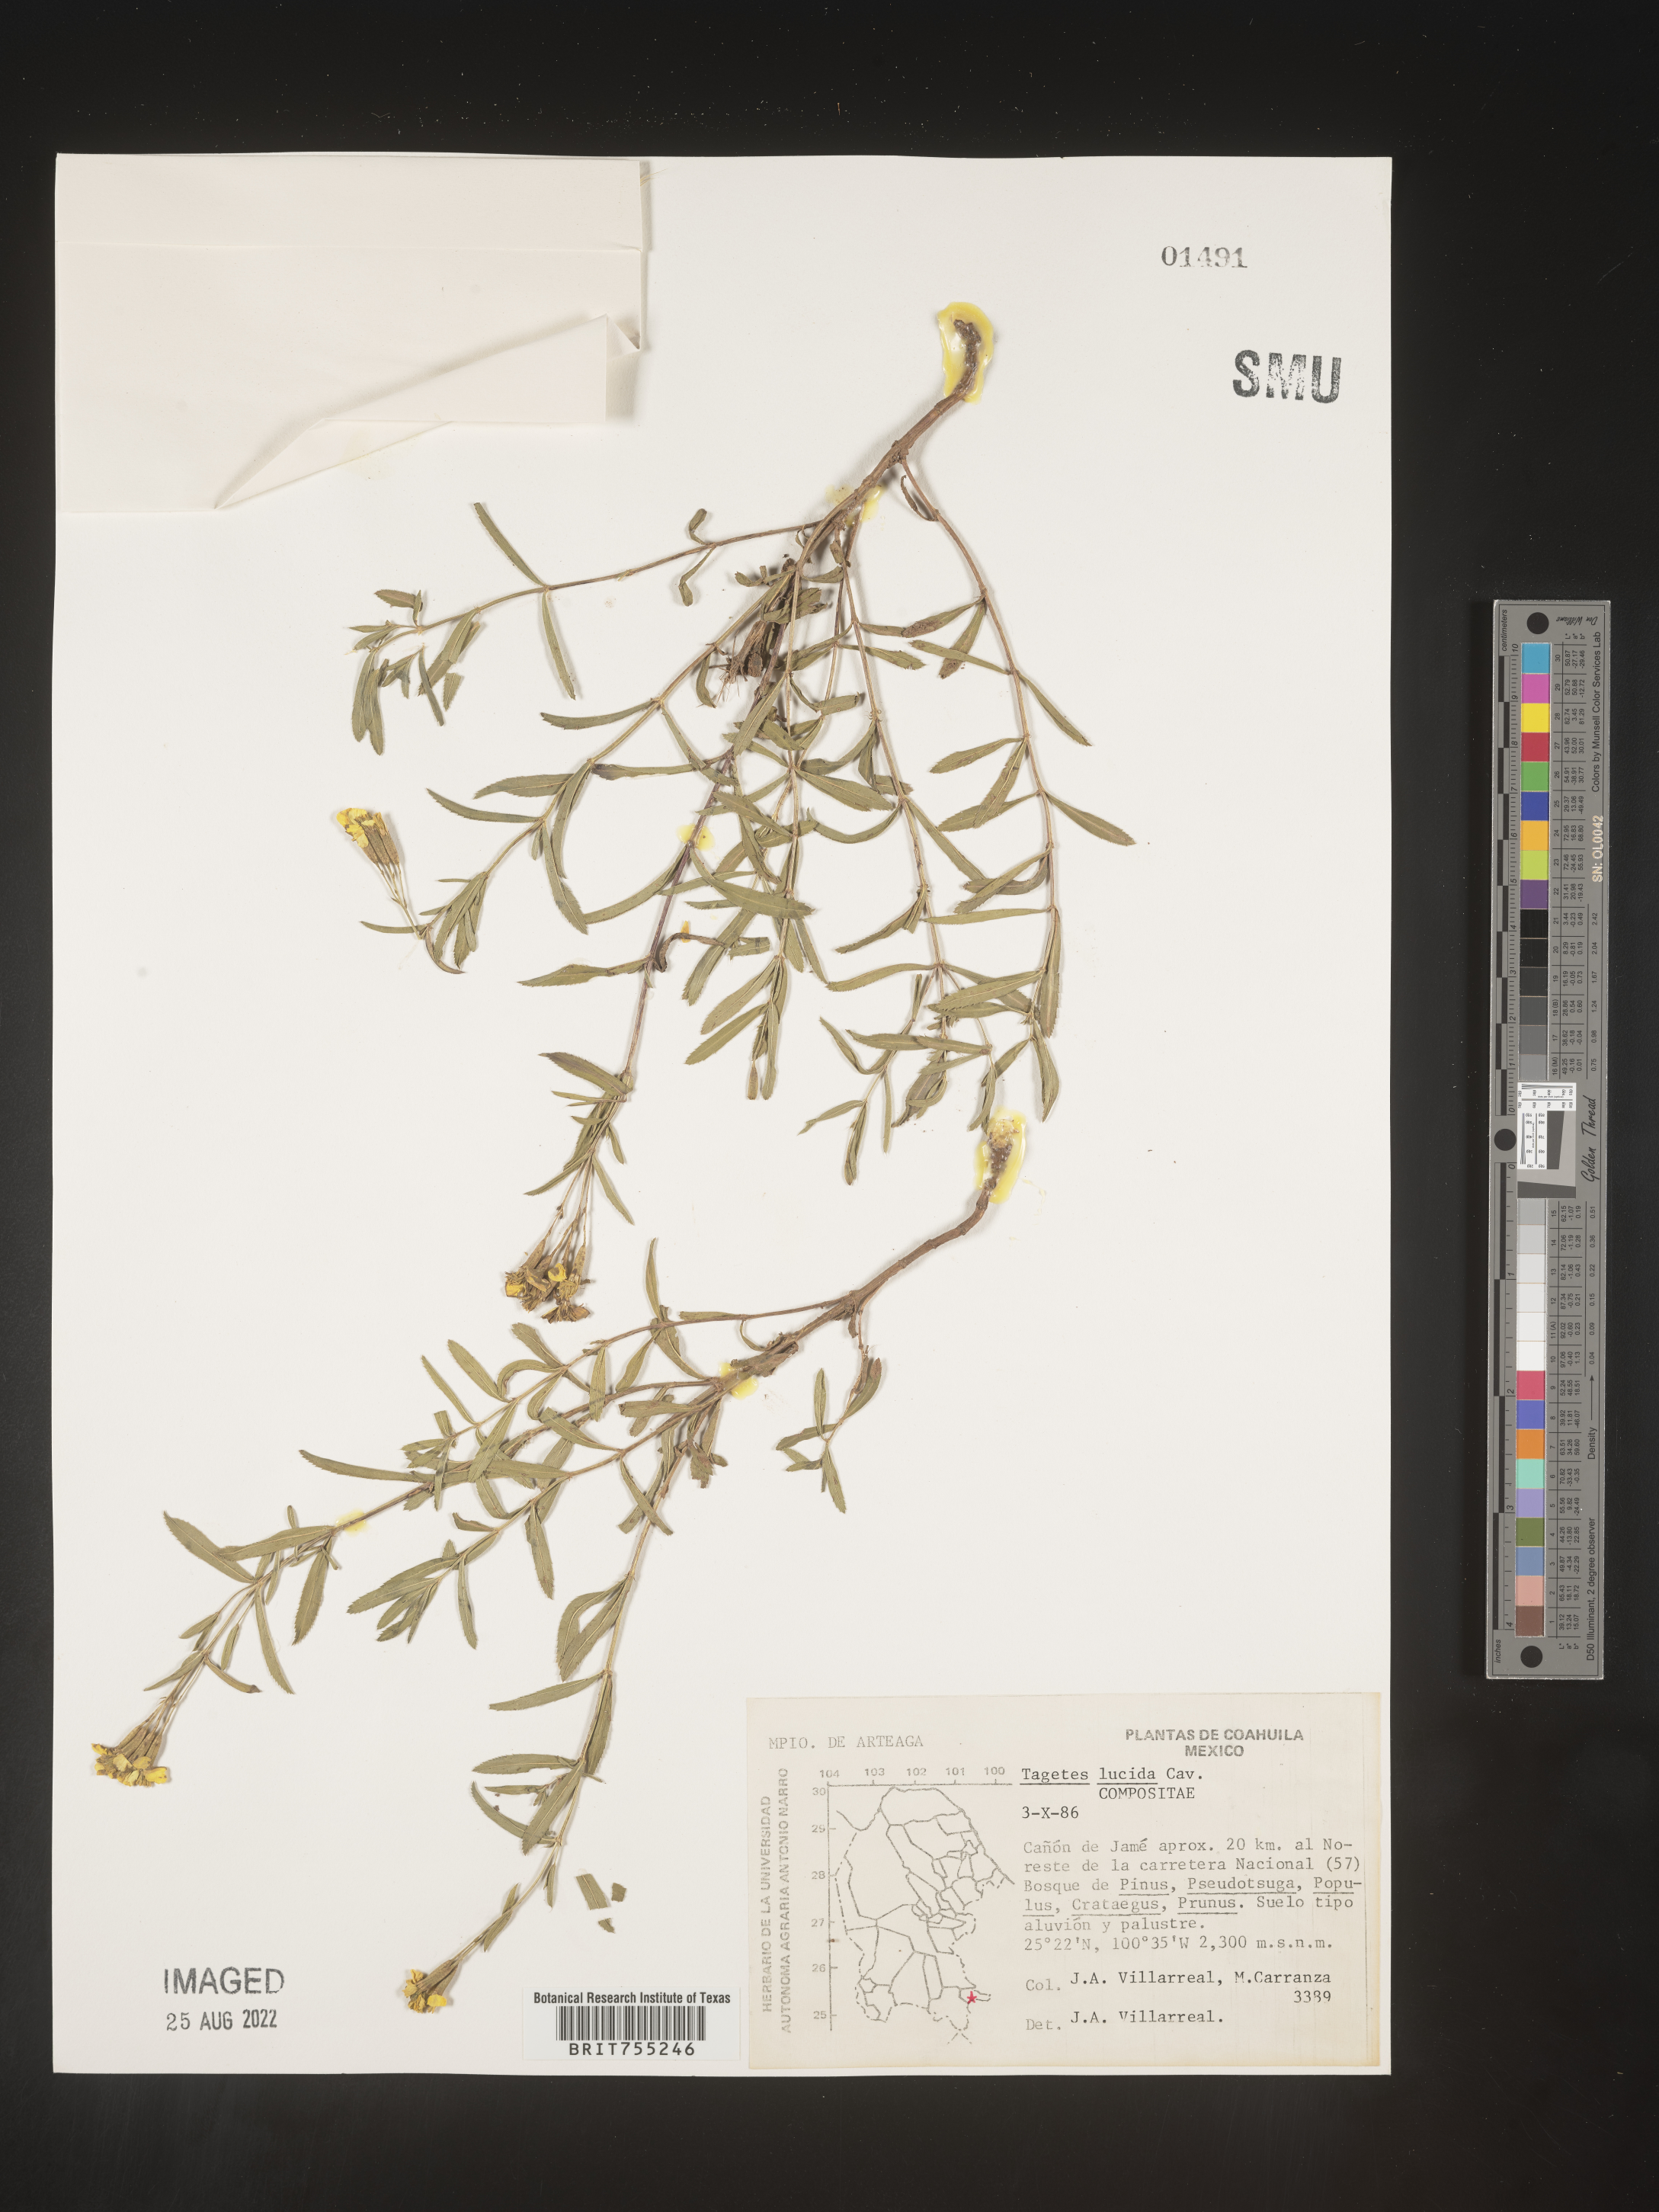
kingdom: Plantae
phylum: Tracheophyta
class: Magnoliopsida
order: Asterales
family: Asteraceae
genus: Tagetes
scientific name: Tagetes lucida
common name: Sweetscented marigold
